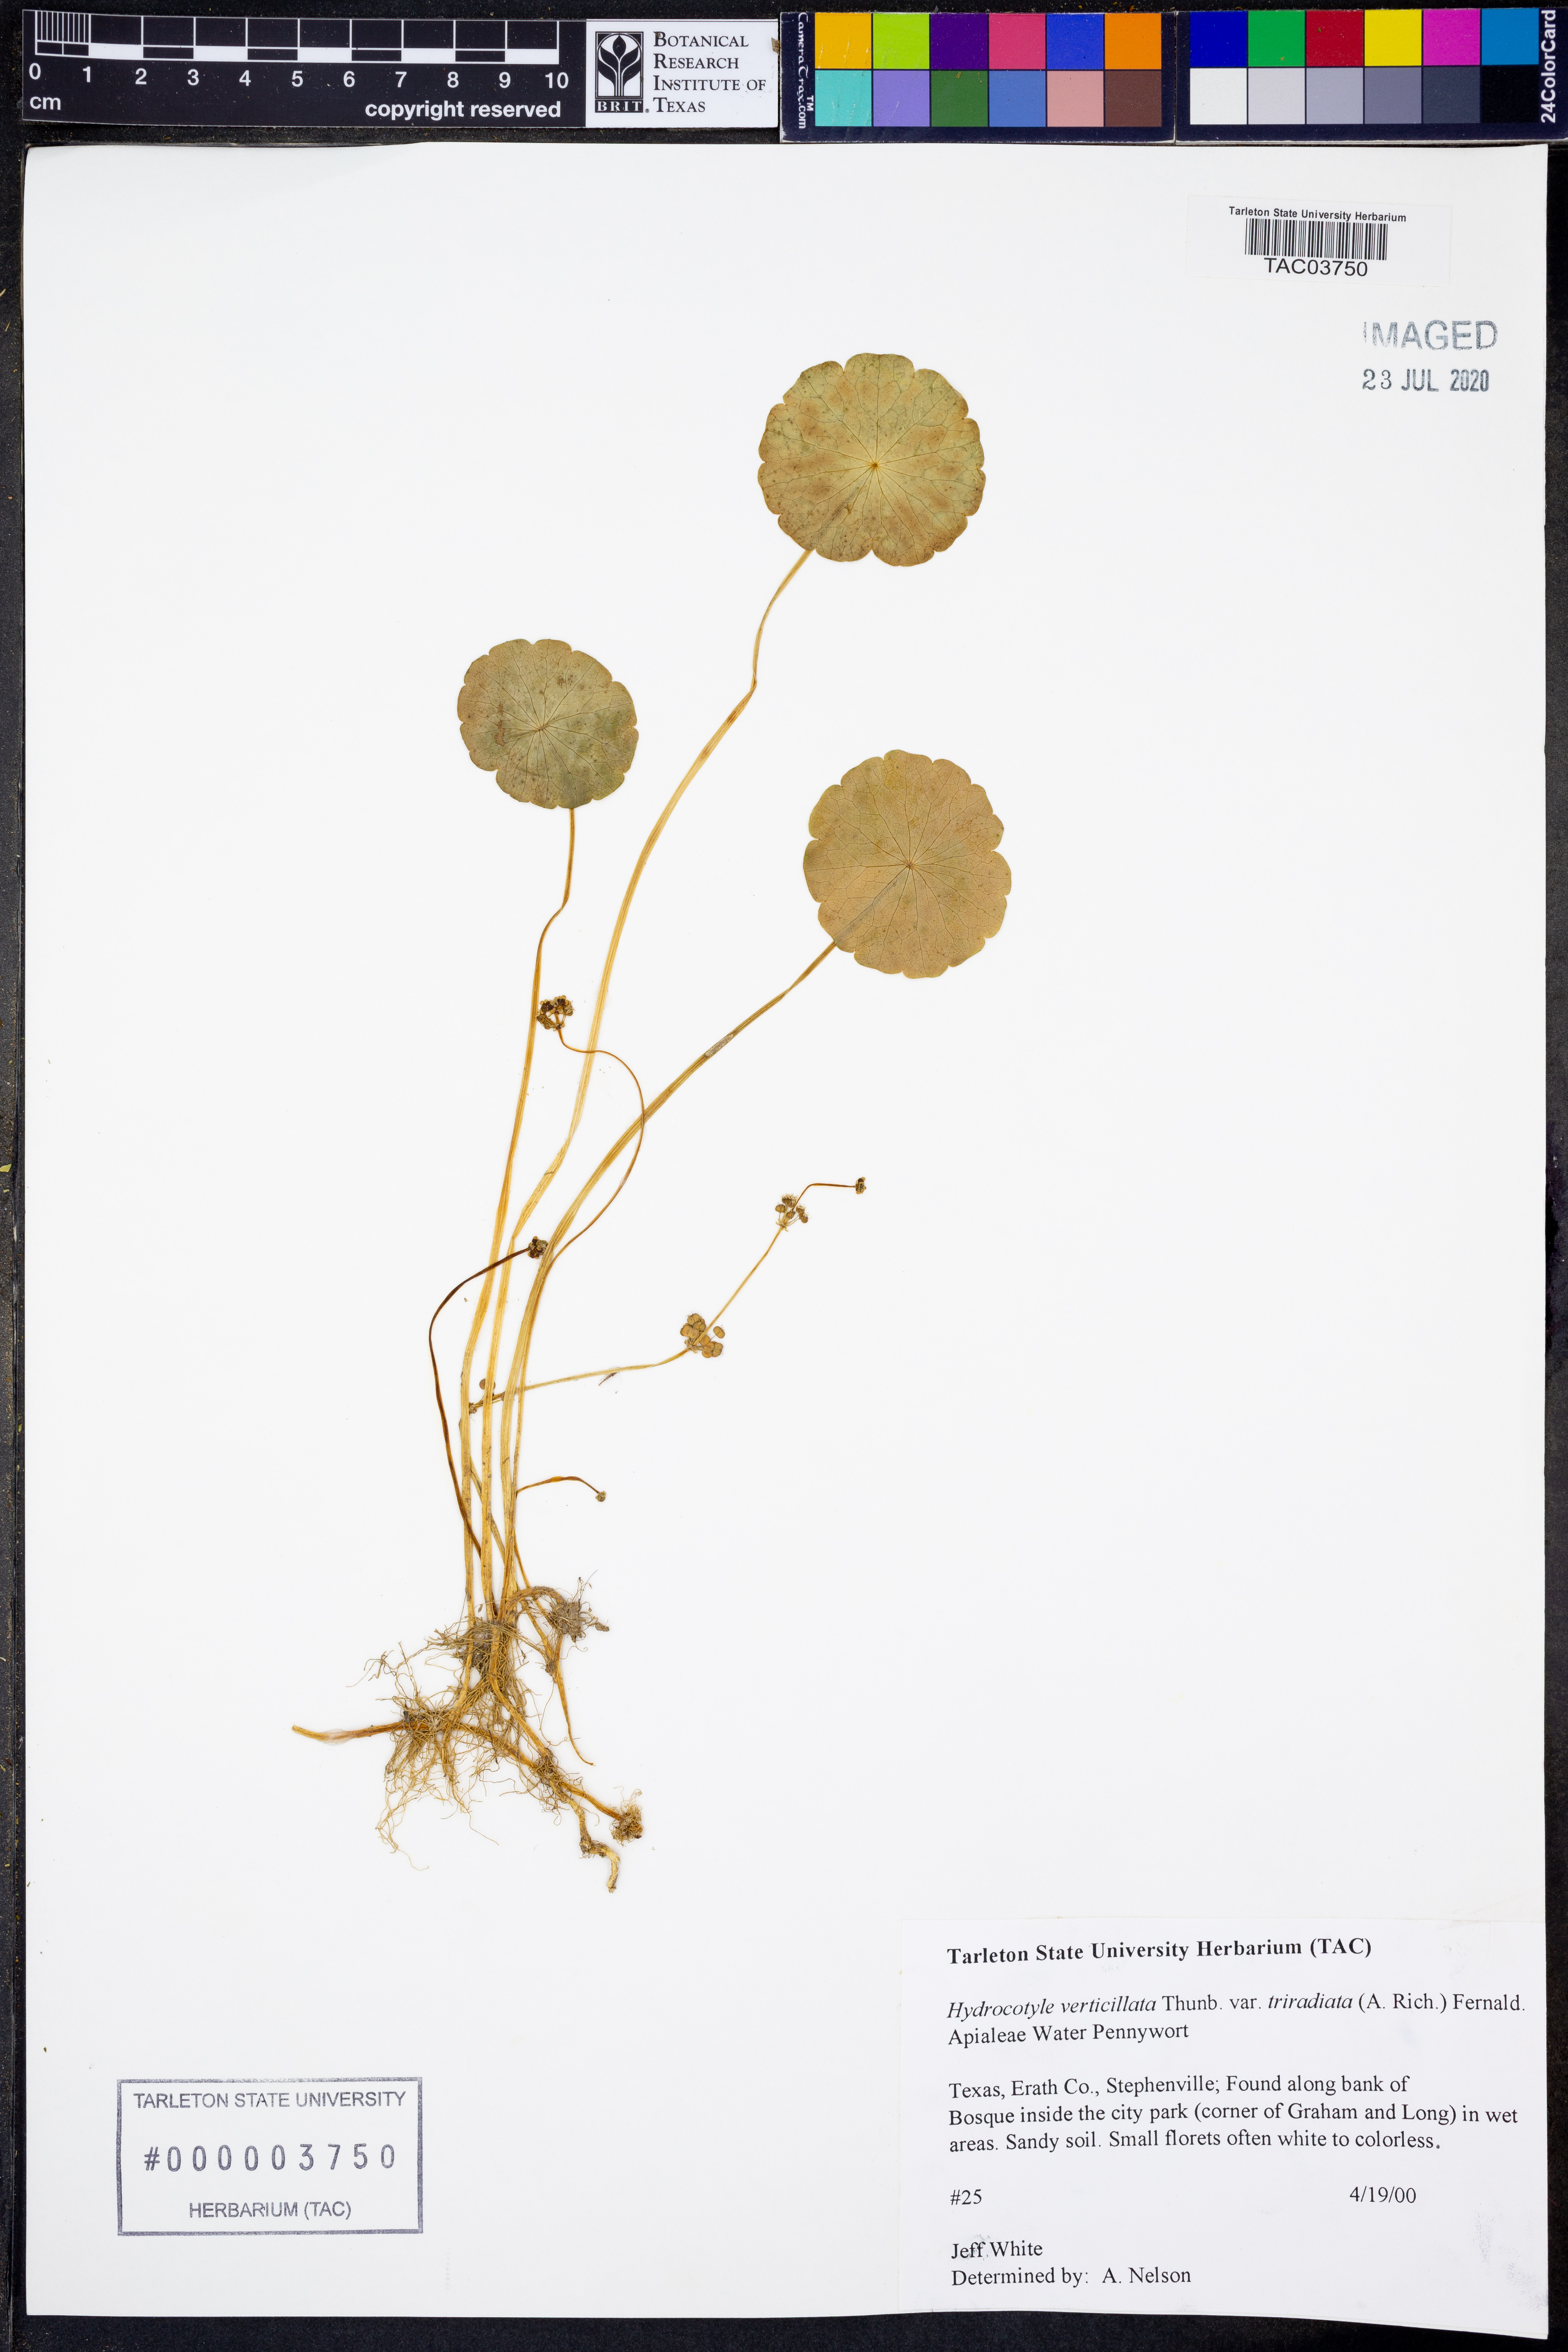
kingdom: Plantae
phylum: Tracheophyta
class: Magnoliopsida
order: Apiales
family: Araliaceae
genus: Hydrocotyle
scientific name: Hydrocotyle bonariensis
